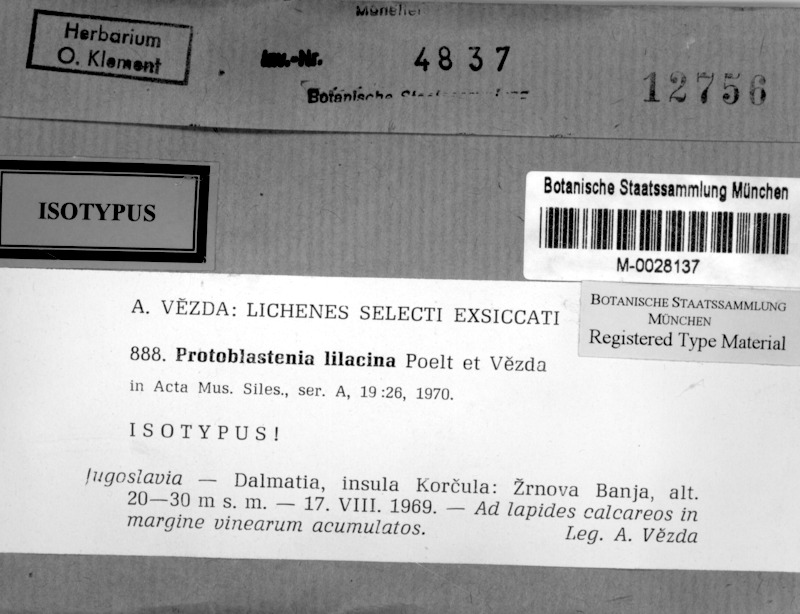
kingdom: Fungi
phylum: Ascomycota
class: Lecanoromycetes
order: Lecanorales
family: Psoraceae
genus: Protoblastenia
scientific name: Protoblastenia lilacina
